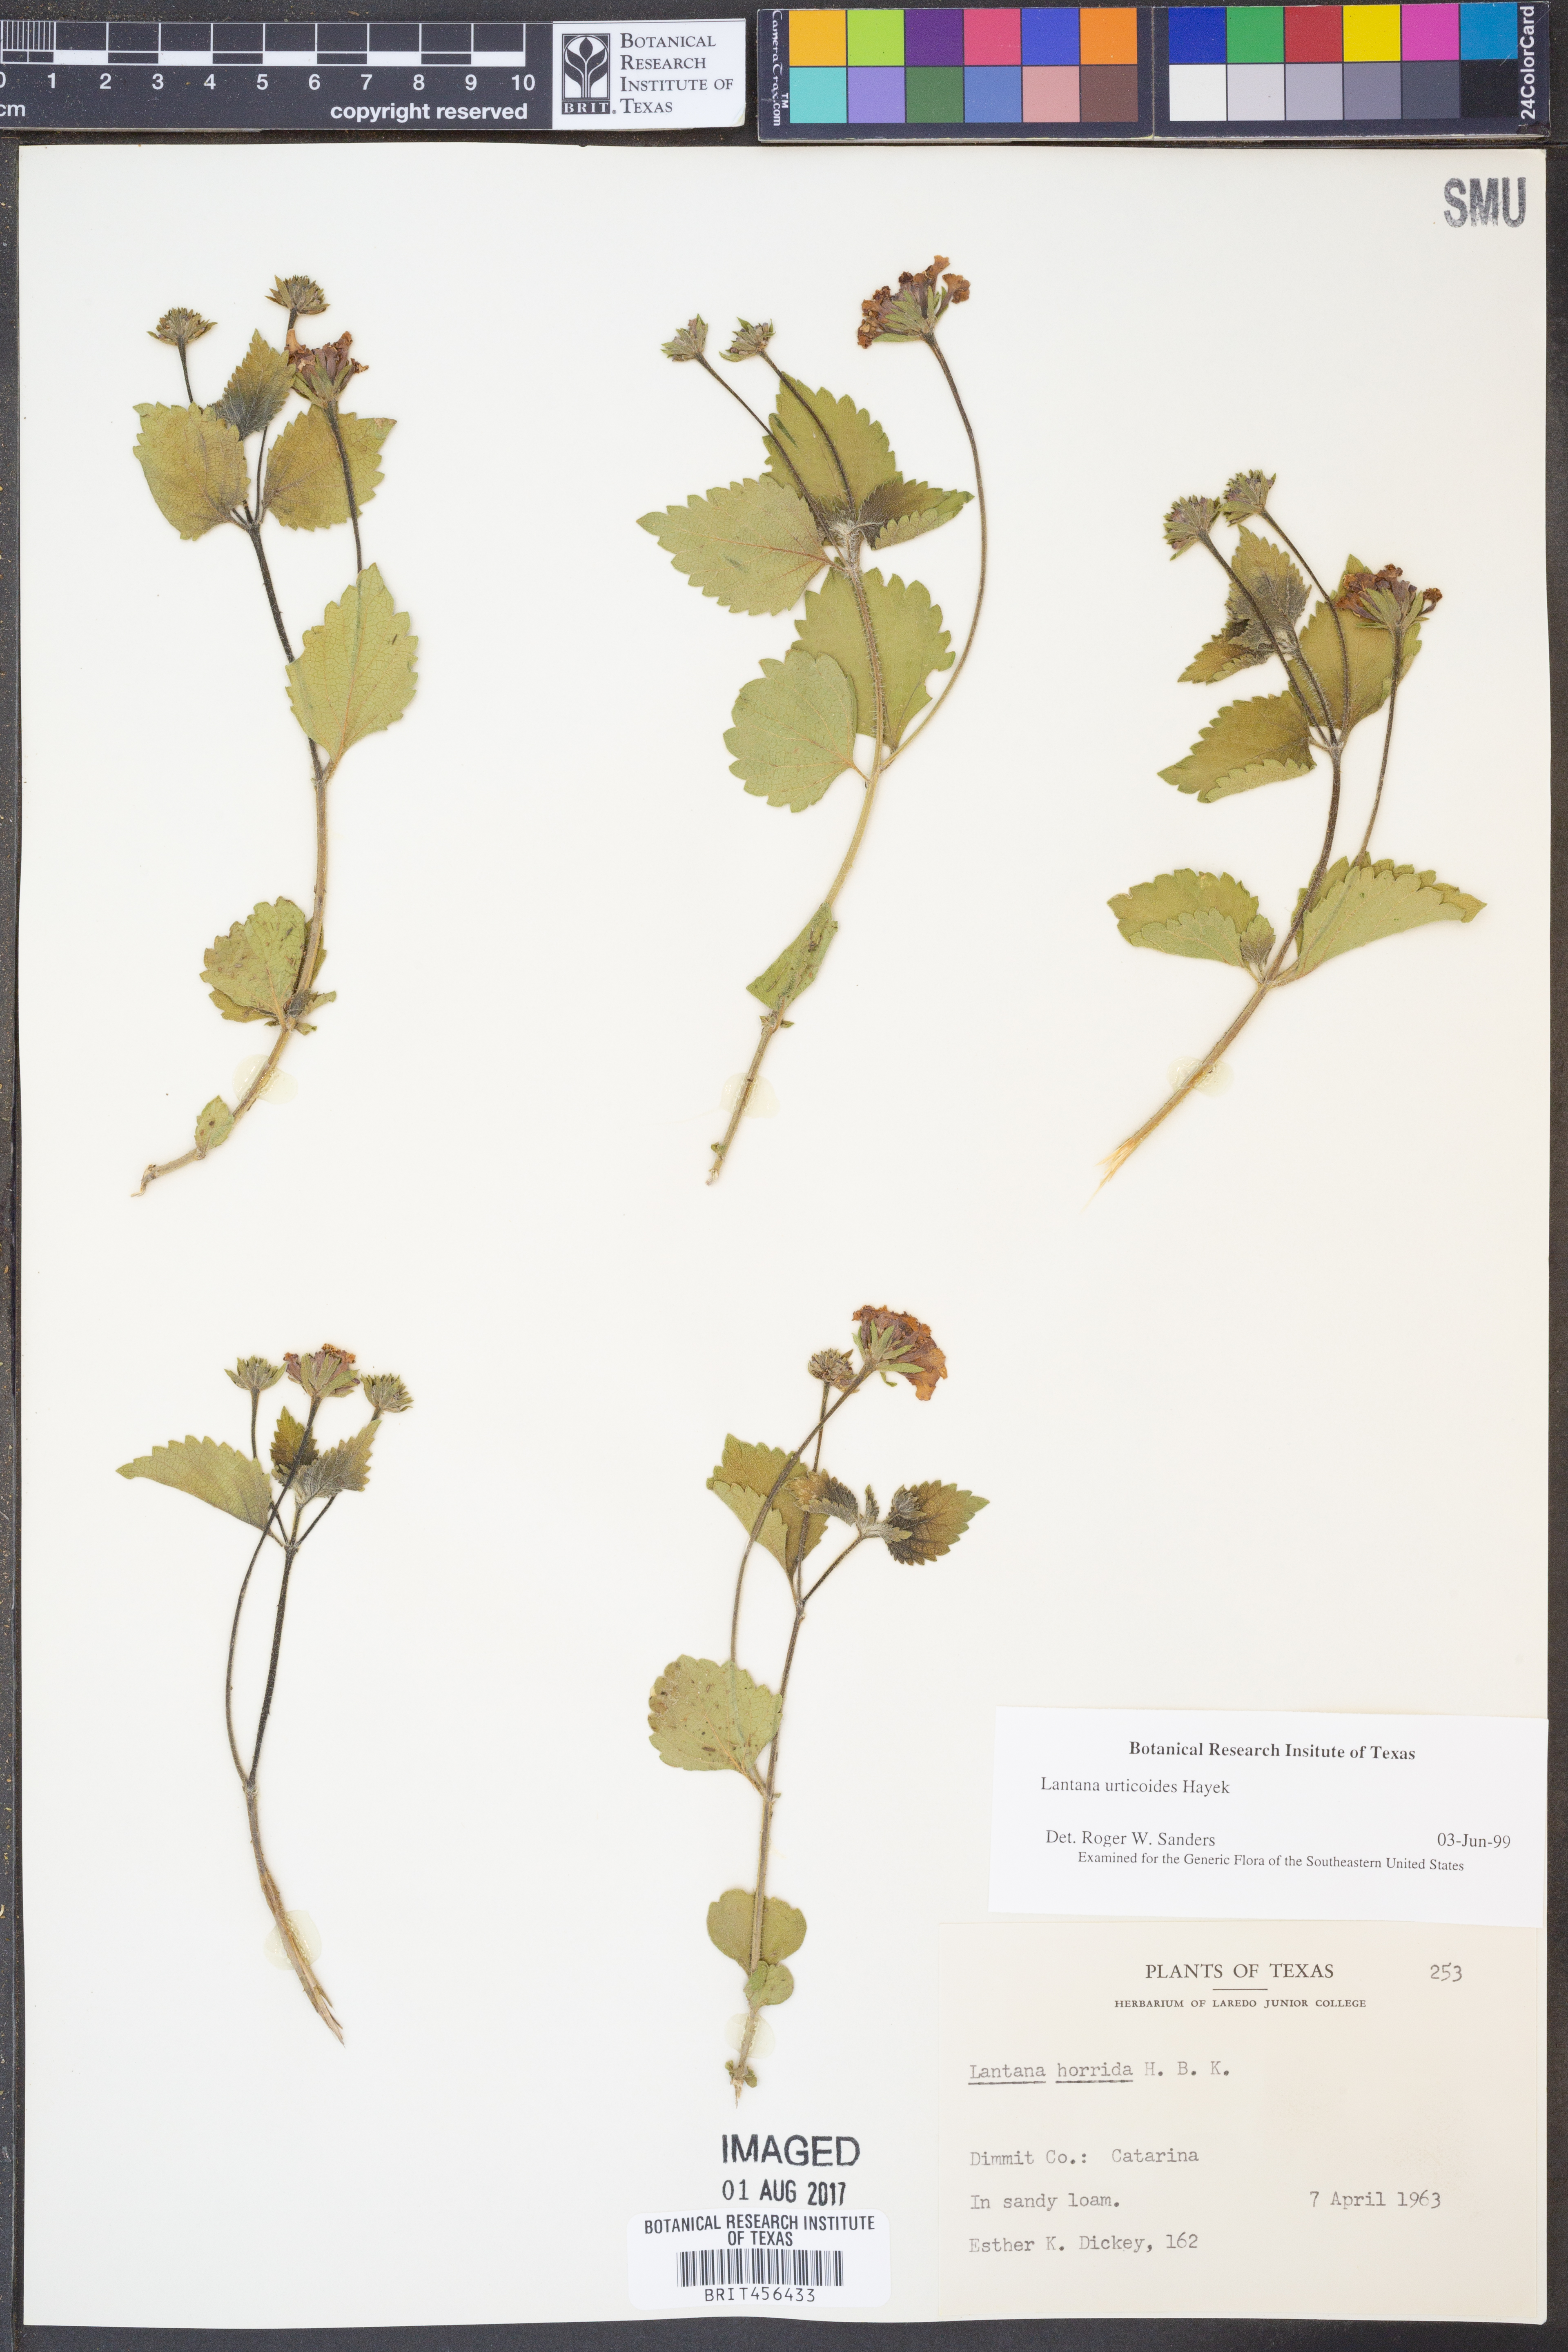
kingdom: Plantae
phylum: Tracheophyta
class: Magnoliopsida
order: Lamiales
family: Verbenaceae
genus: Lantana
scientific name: Lantana urticoides
